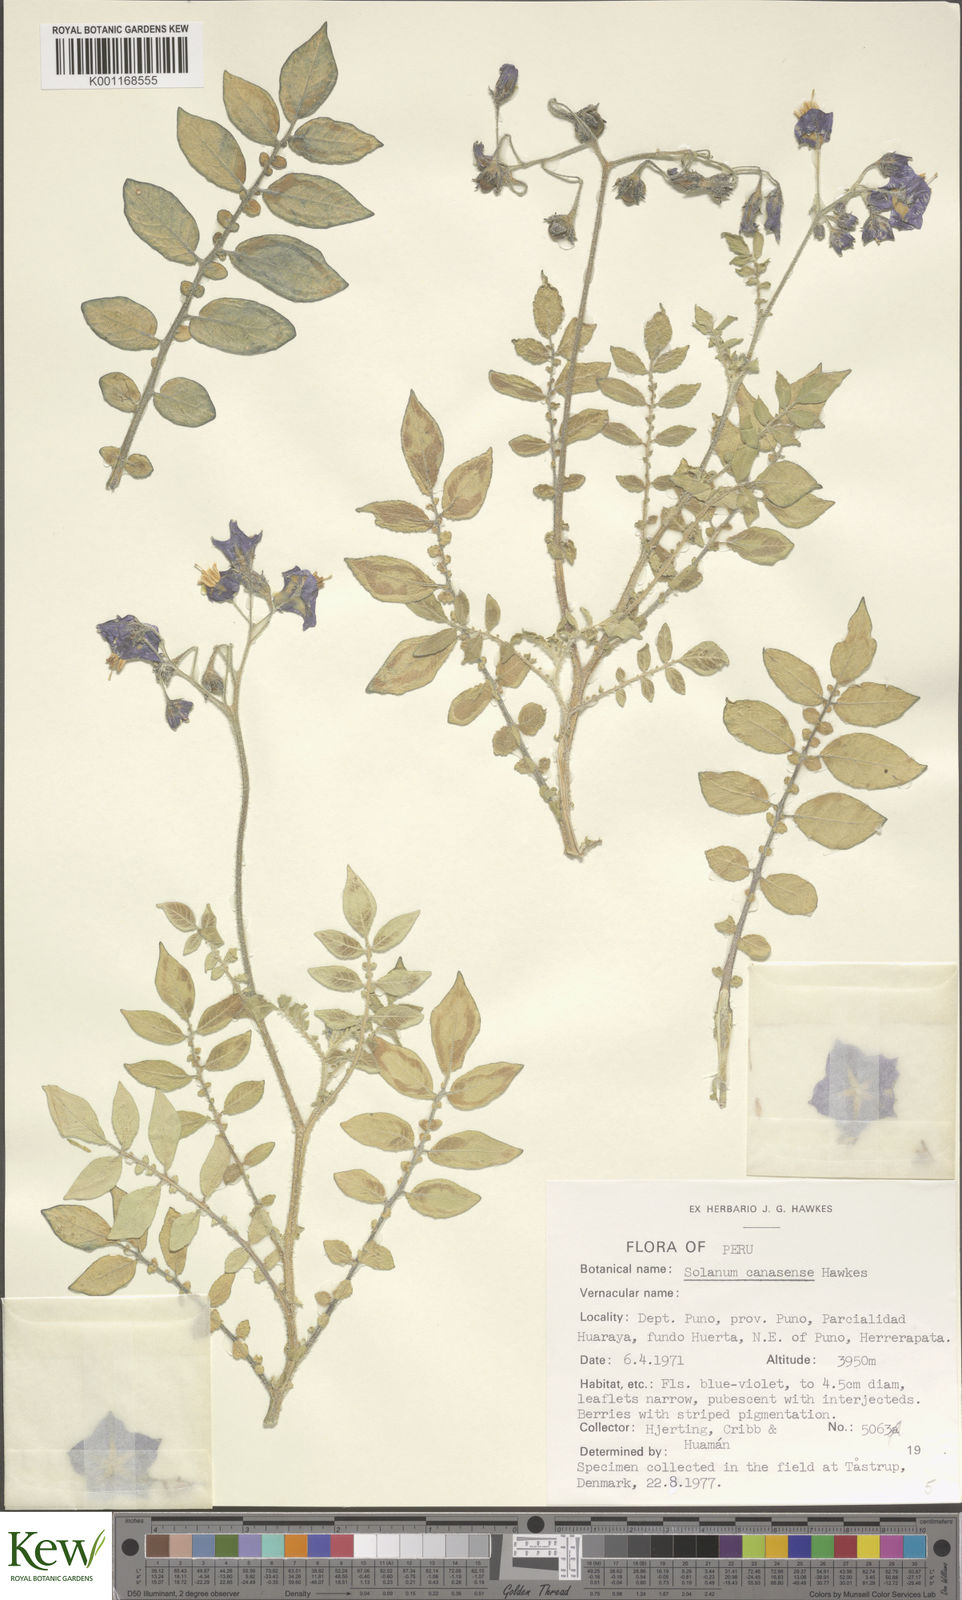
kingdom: Plantae
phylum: Tracheophyta
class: Magnoliopsida
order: Solanales
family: Solanaceae
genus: Solanum
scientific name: Solanum candolleanum
